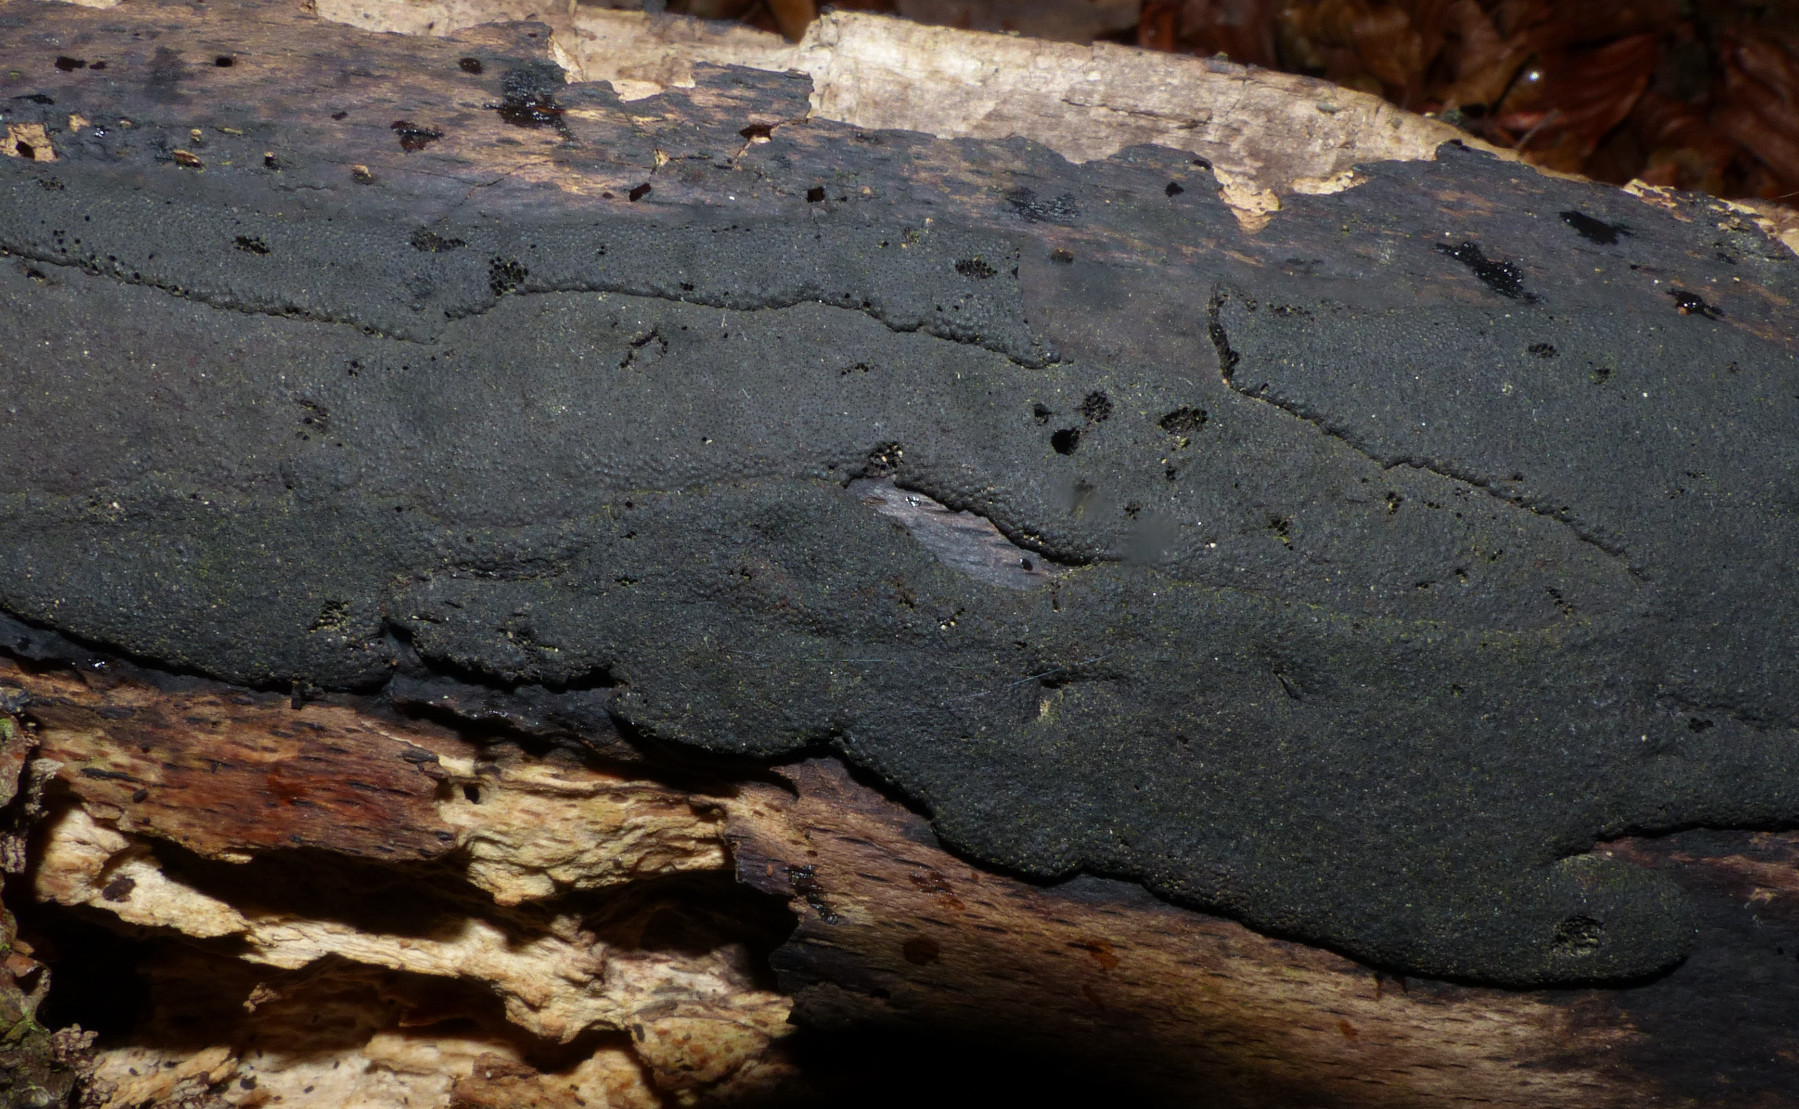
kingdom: Fungi
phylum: Ascomycota
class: Sordariomycetes
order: Xylariales
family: Hypoxylaceae
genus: Hypoxylon
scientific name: Hypoxylon macrocarpum
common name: skorpe-kulbær
